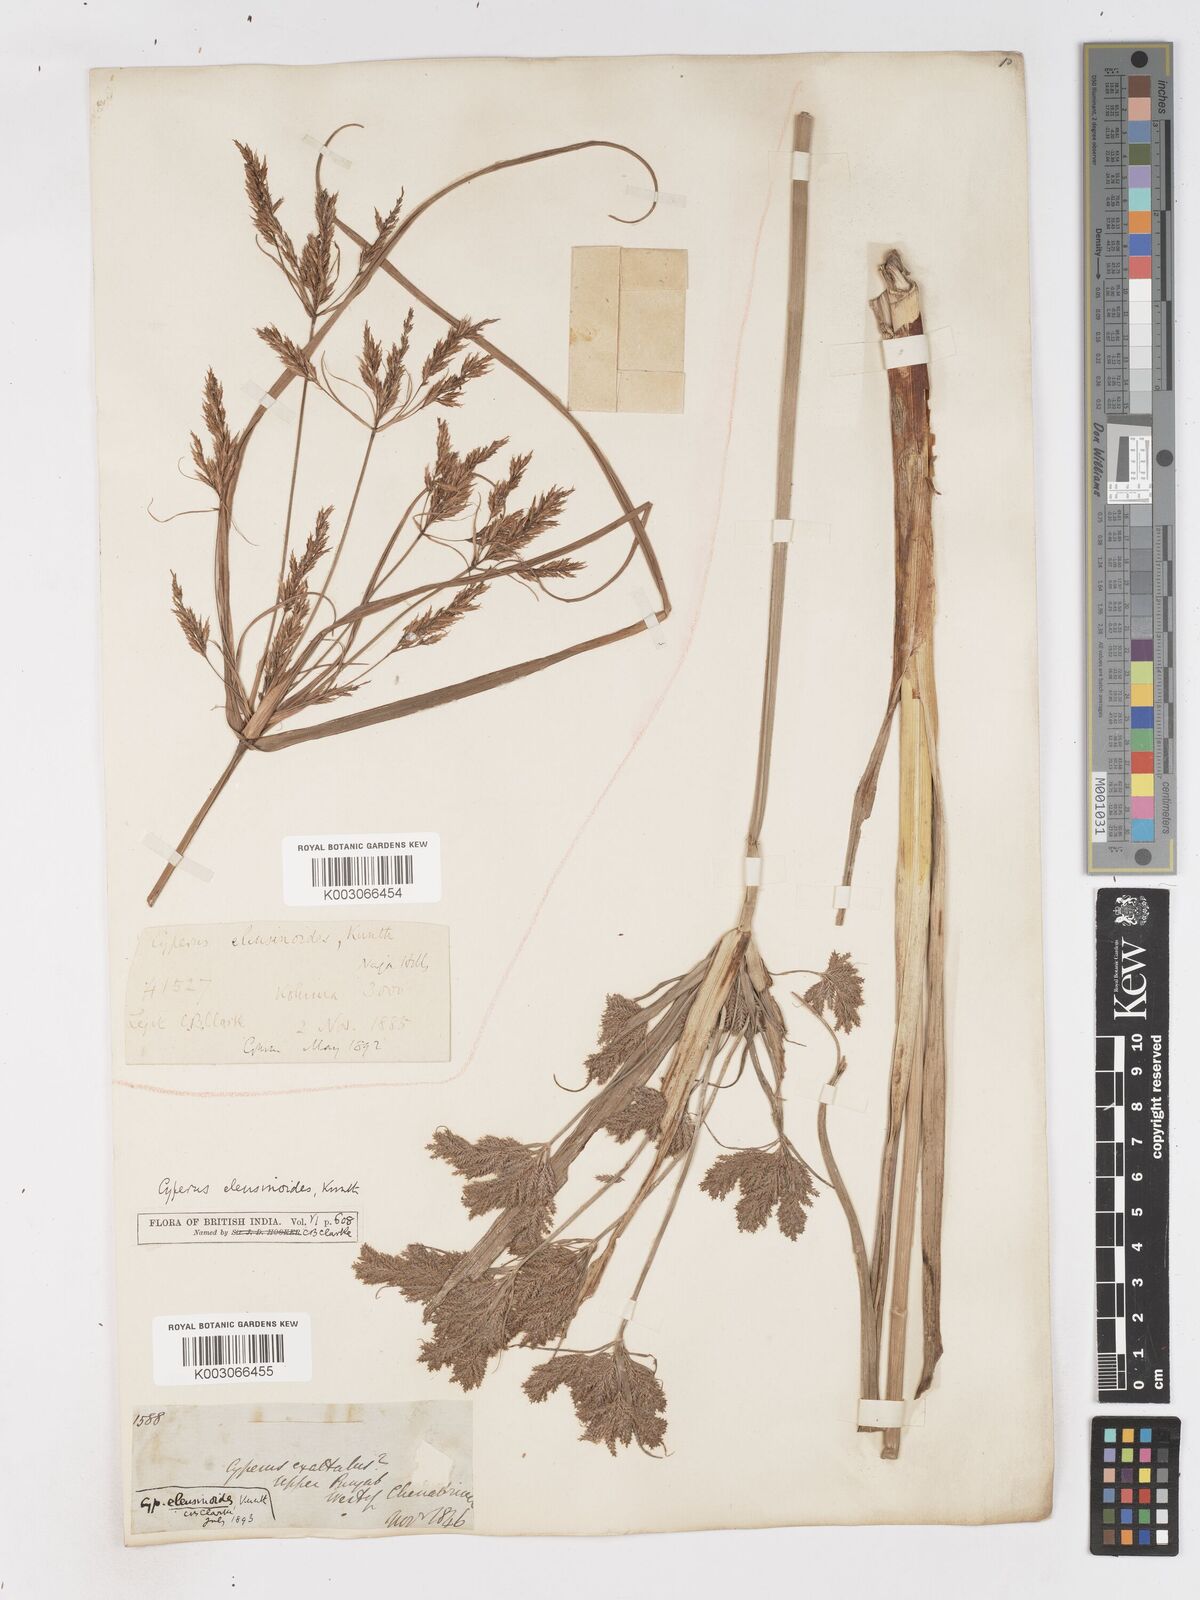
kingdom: Plantae
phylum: Tracheophyta
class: Liliopsida
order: Poales
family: Cyperaceae
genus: Cyperus
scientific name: Cyperus nutans
